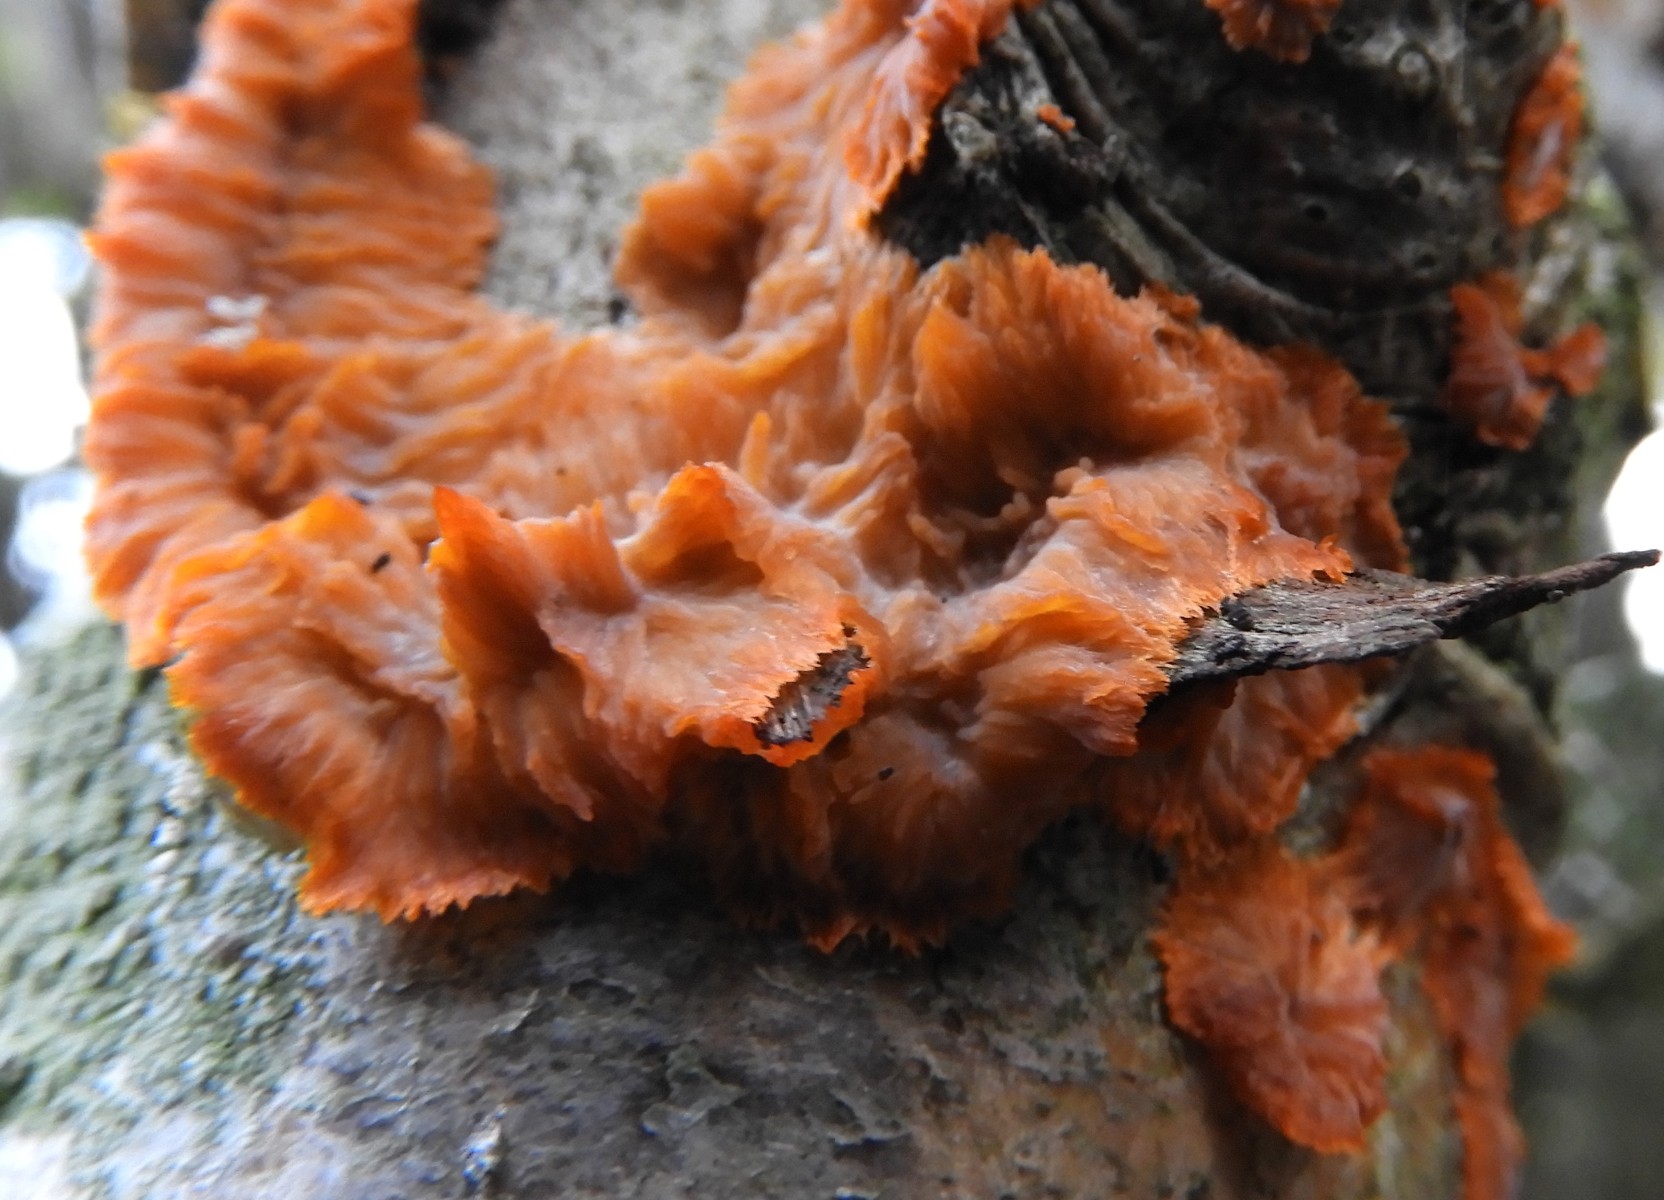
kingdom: Fungi
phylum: Basidiomycota
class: Agaricomycetes
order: Polyporales
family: Meruliaceae
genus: Phlebia
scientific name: Phlebia radiata
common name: stråle-åresvamp
